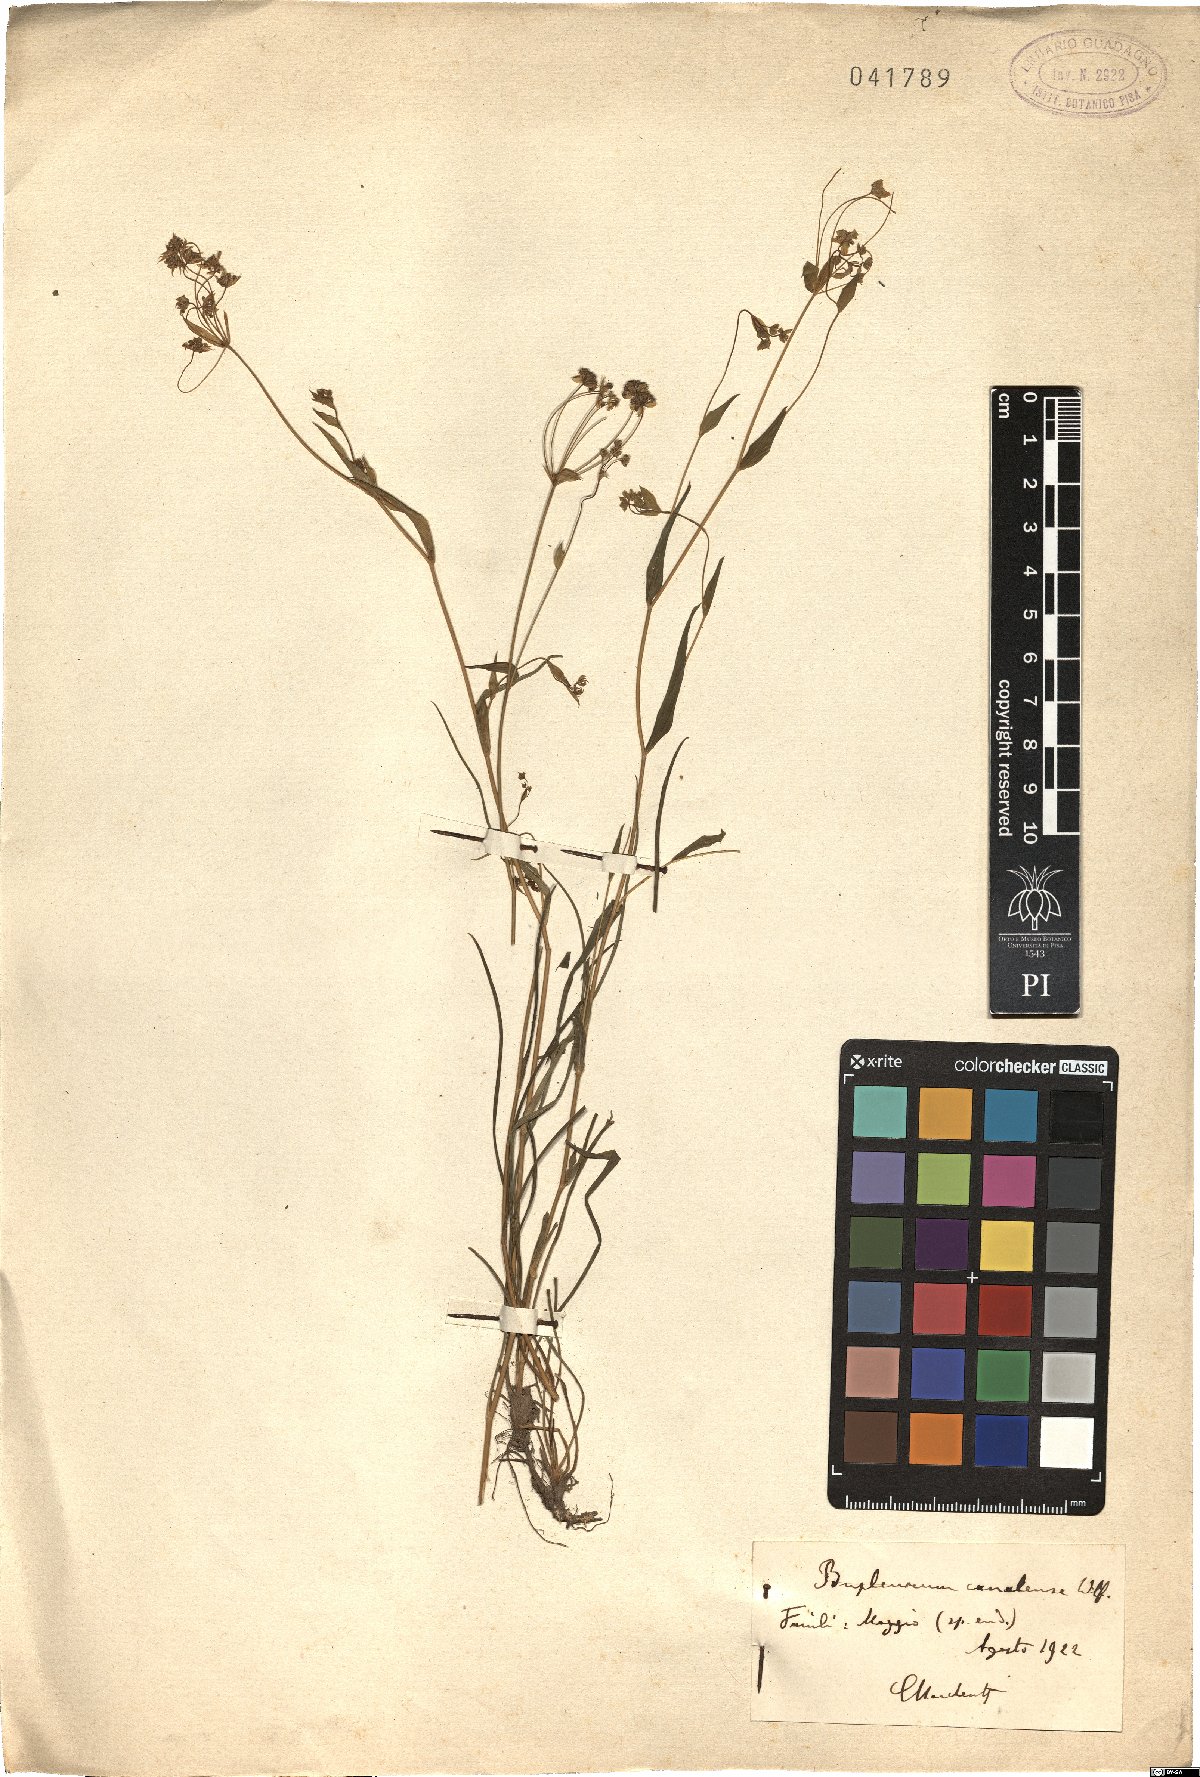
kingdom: Plantae
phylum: Tracheophyta
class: Magnoliopsida
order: Apiales
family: Apiaceae
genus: Bupleurum
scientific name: Bupleurum ranunculoides
